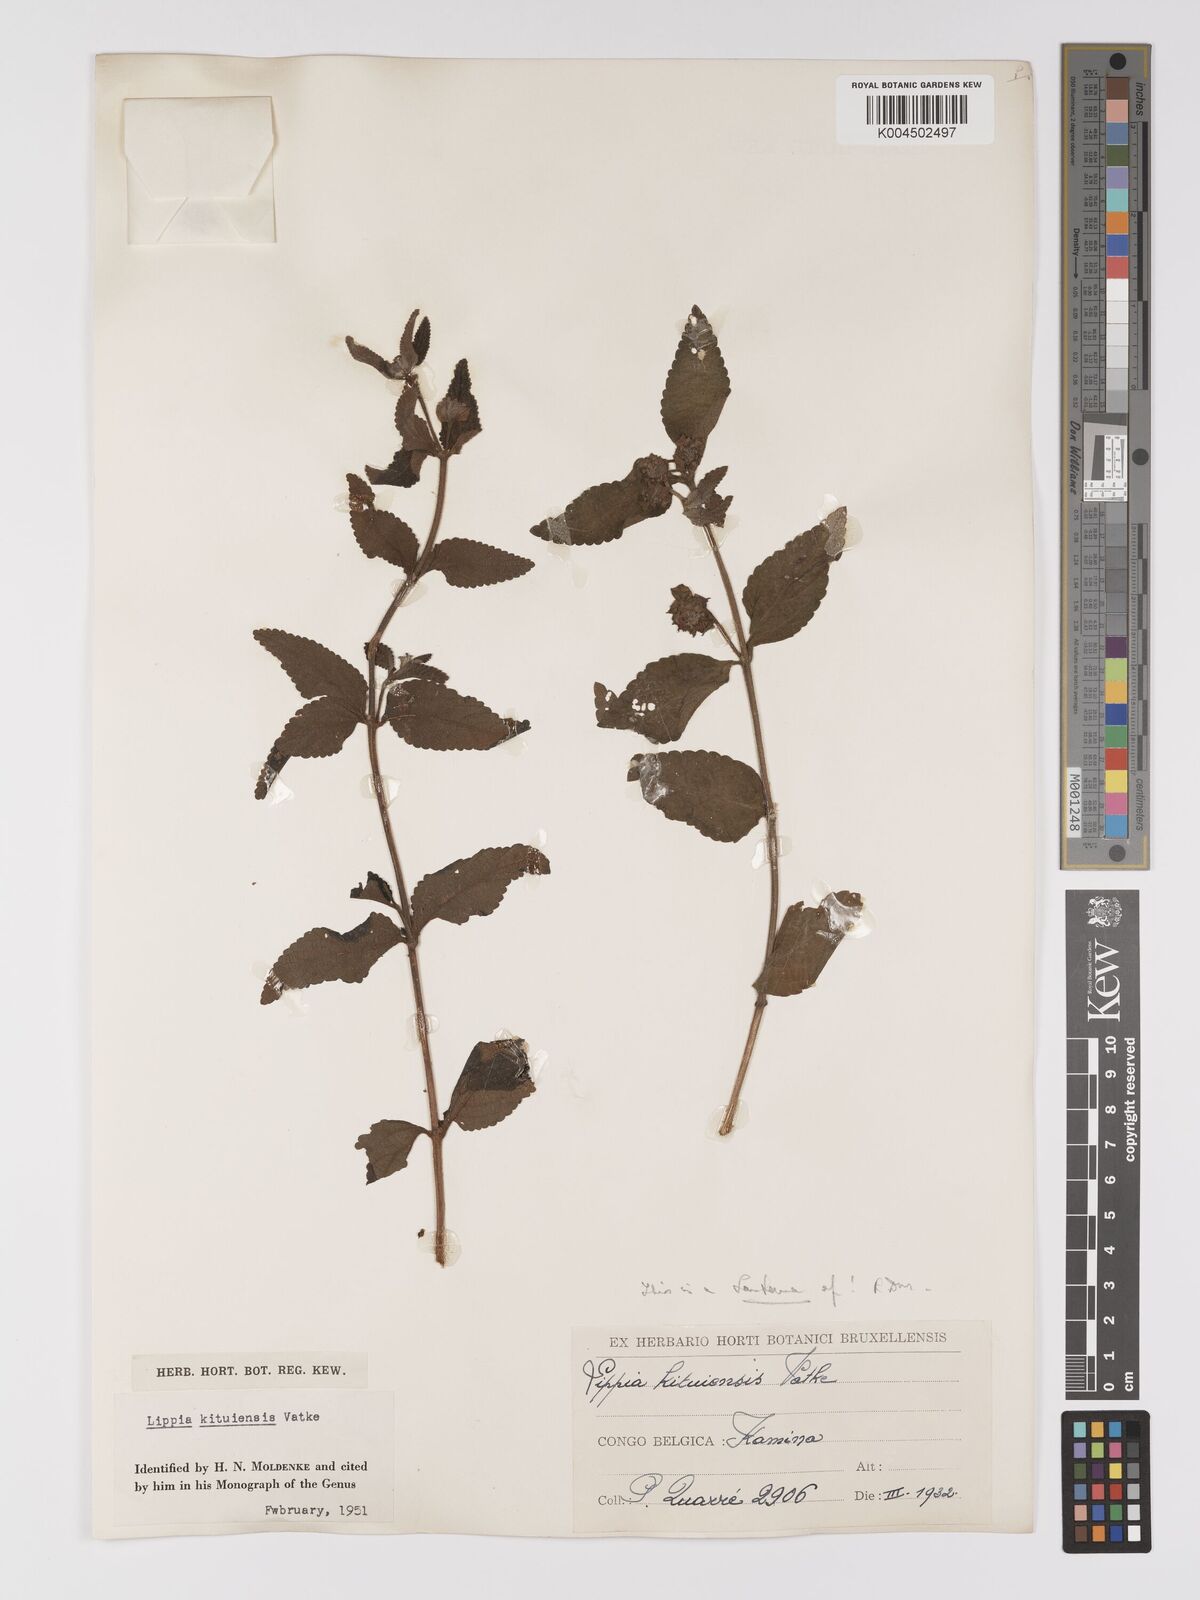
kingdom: Plantae
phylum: Tracheophyta
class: Magnoliopsida
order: Lamiales
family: Verbenaceae
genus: Lantana
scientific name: Lantana ukambensis
